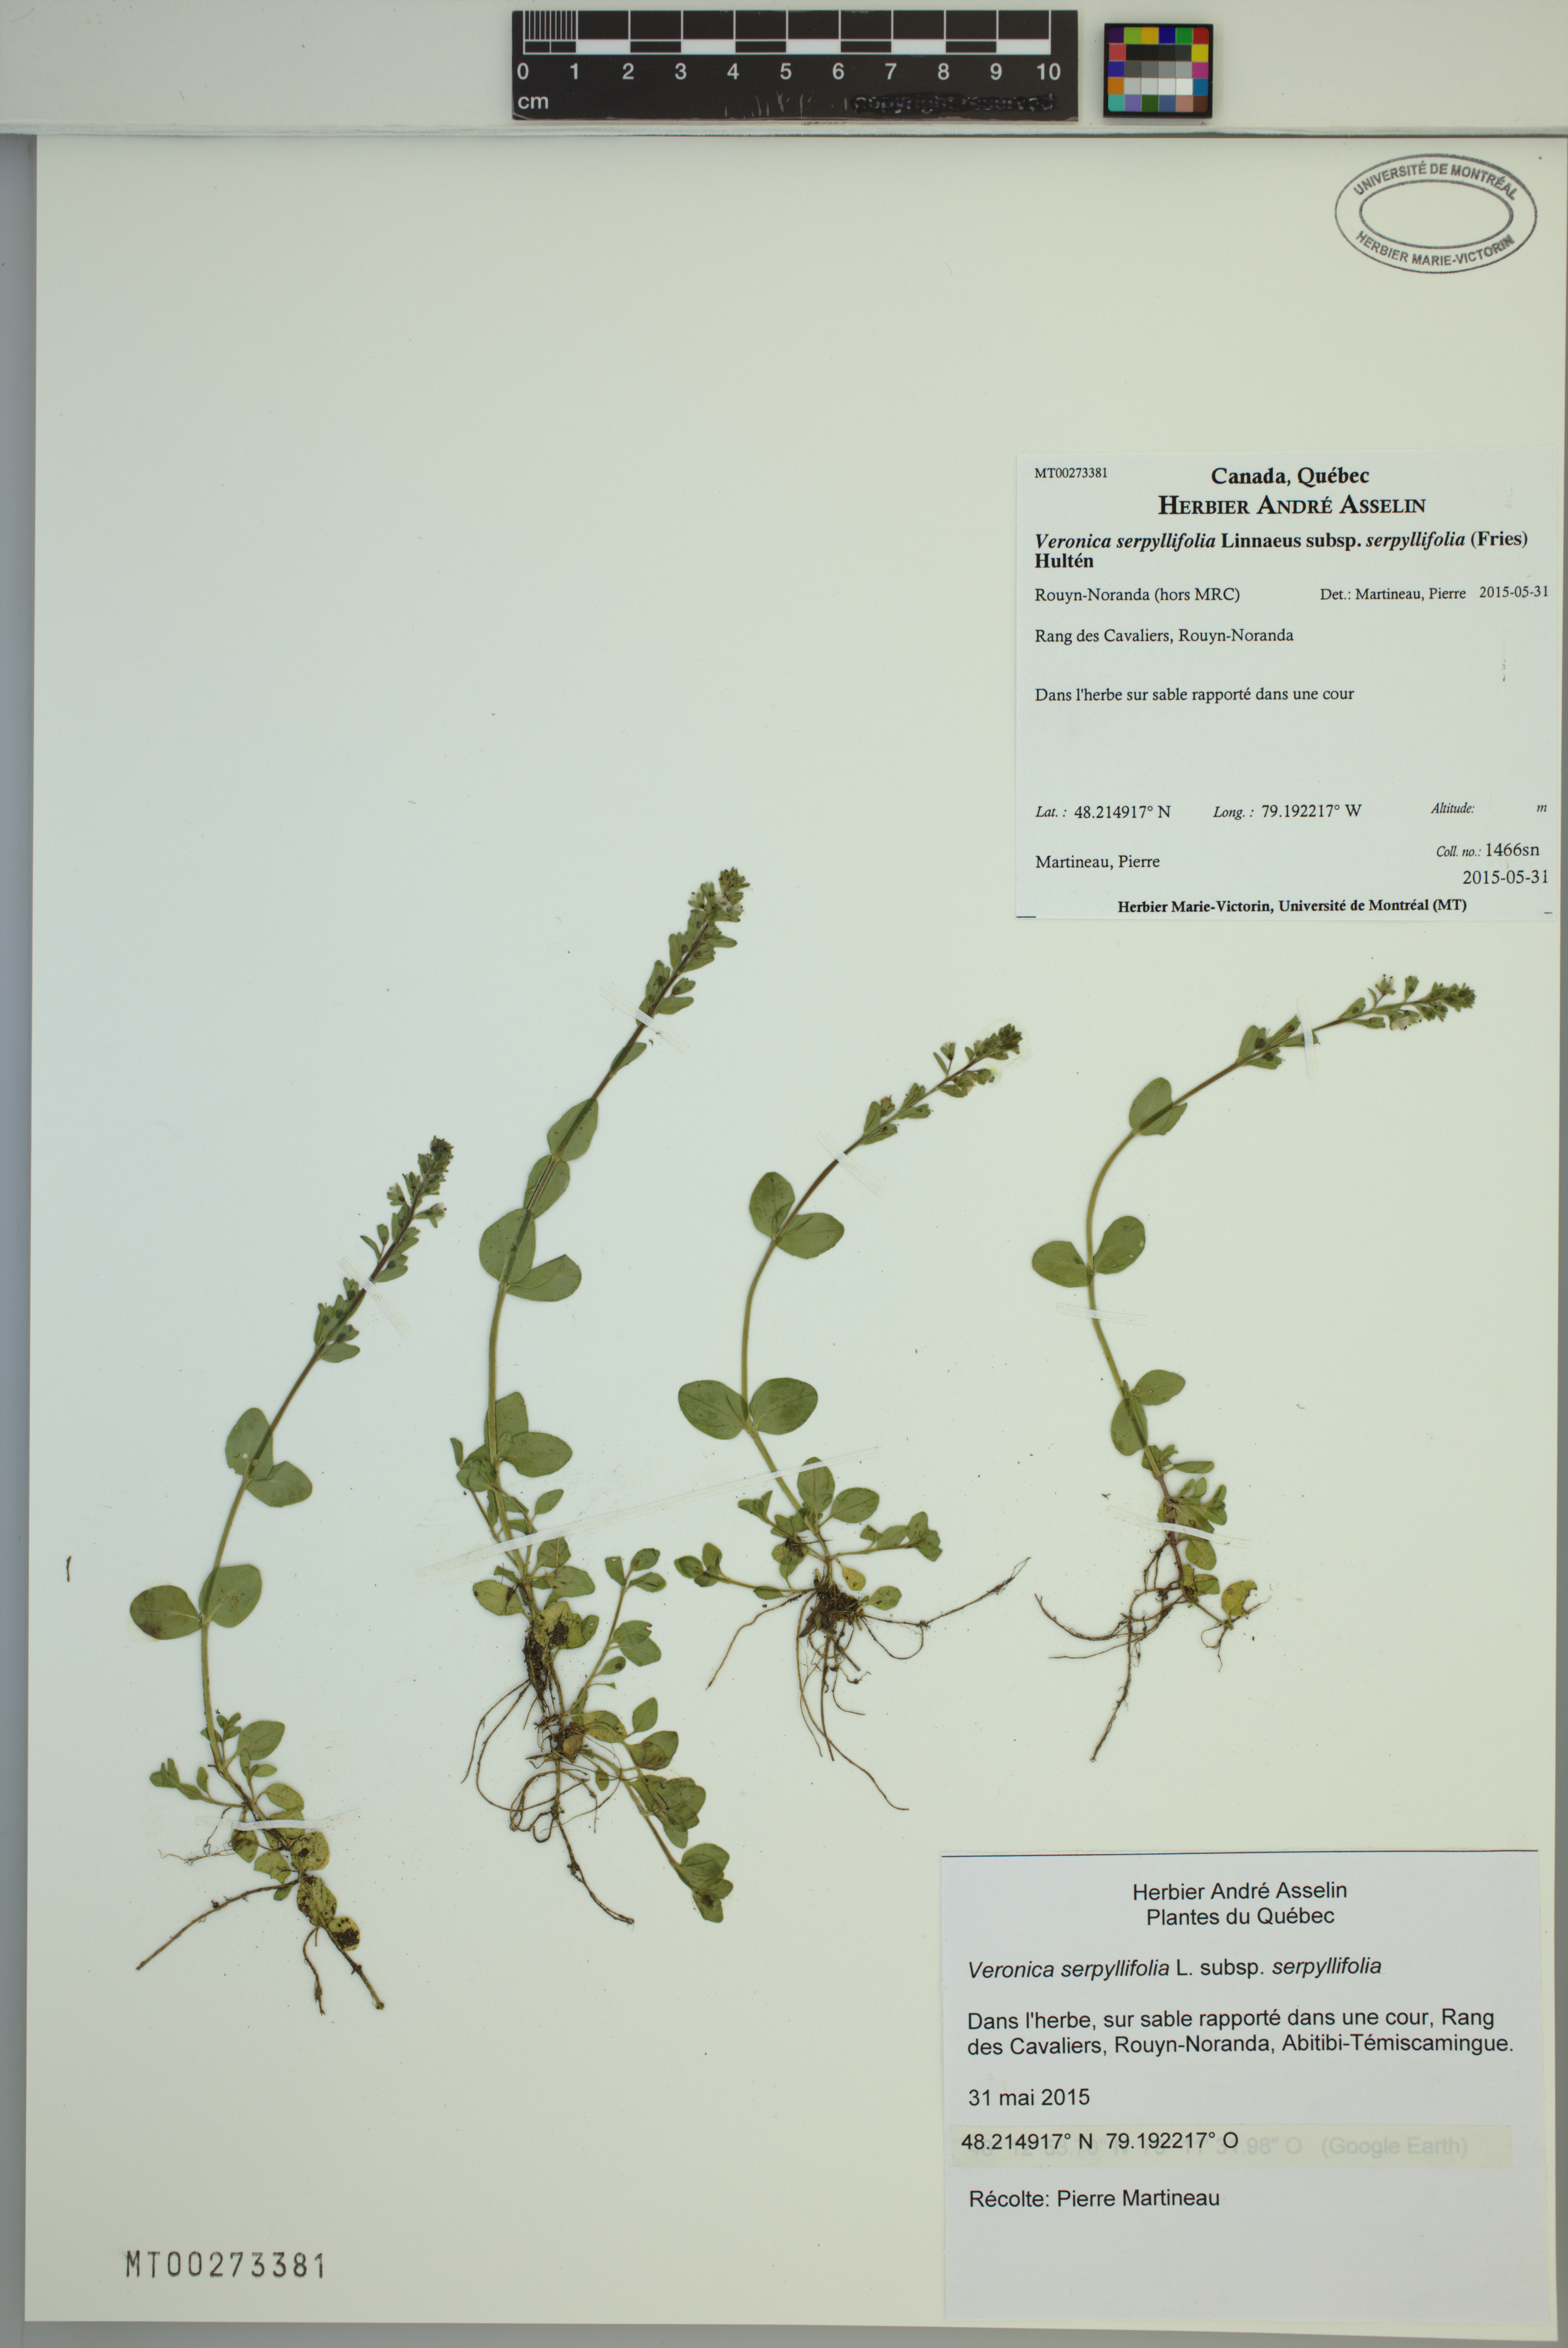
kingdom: Plantae
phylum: Tracheophyta
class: Magnoliopsida
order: Lamiales
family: Plantaginaceae
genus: Veronica
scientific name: Veronica serpyllifolia
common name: Thyme-leaved speedwell
